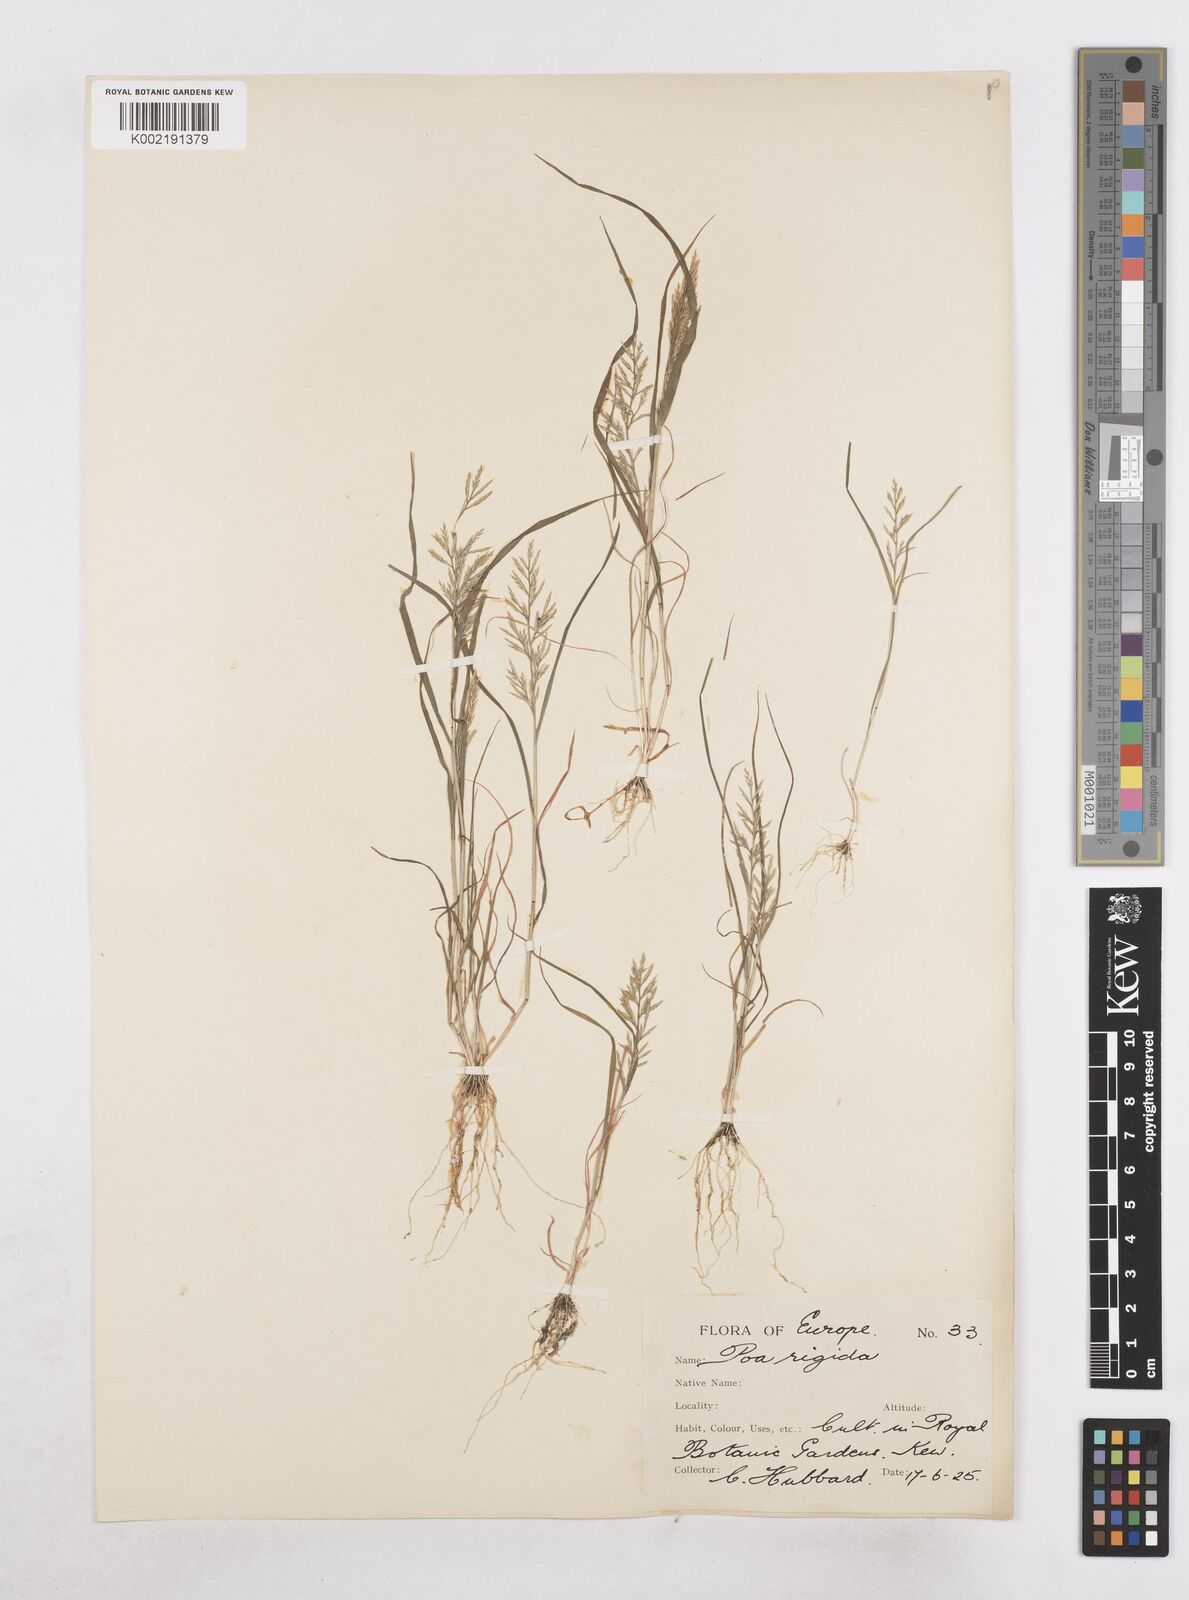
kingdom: Plantae
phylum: Tracheophyta
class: Liliopsida
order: Poales
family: Poaceae
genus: Catapodium
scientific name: Catapodium rigidum
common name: Fern-grass
